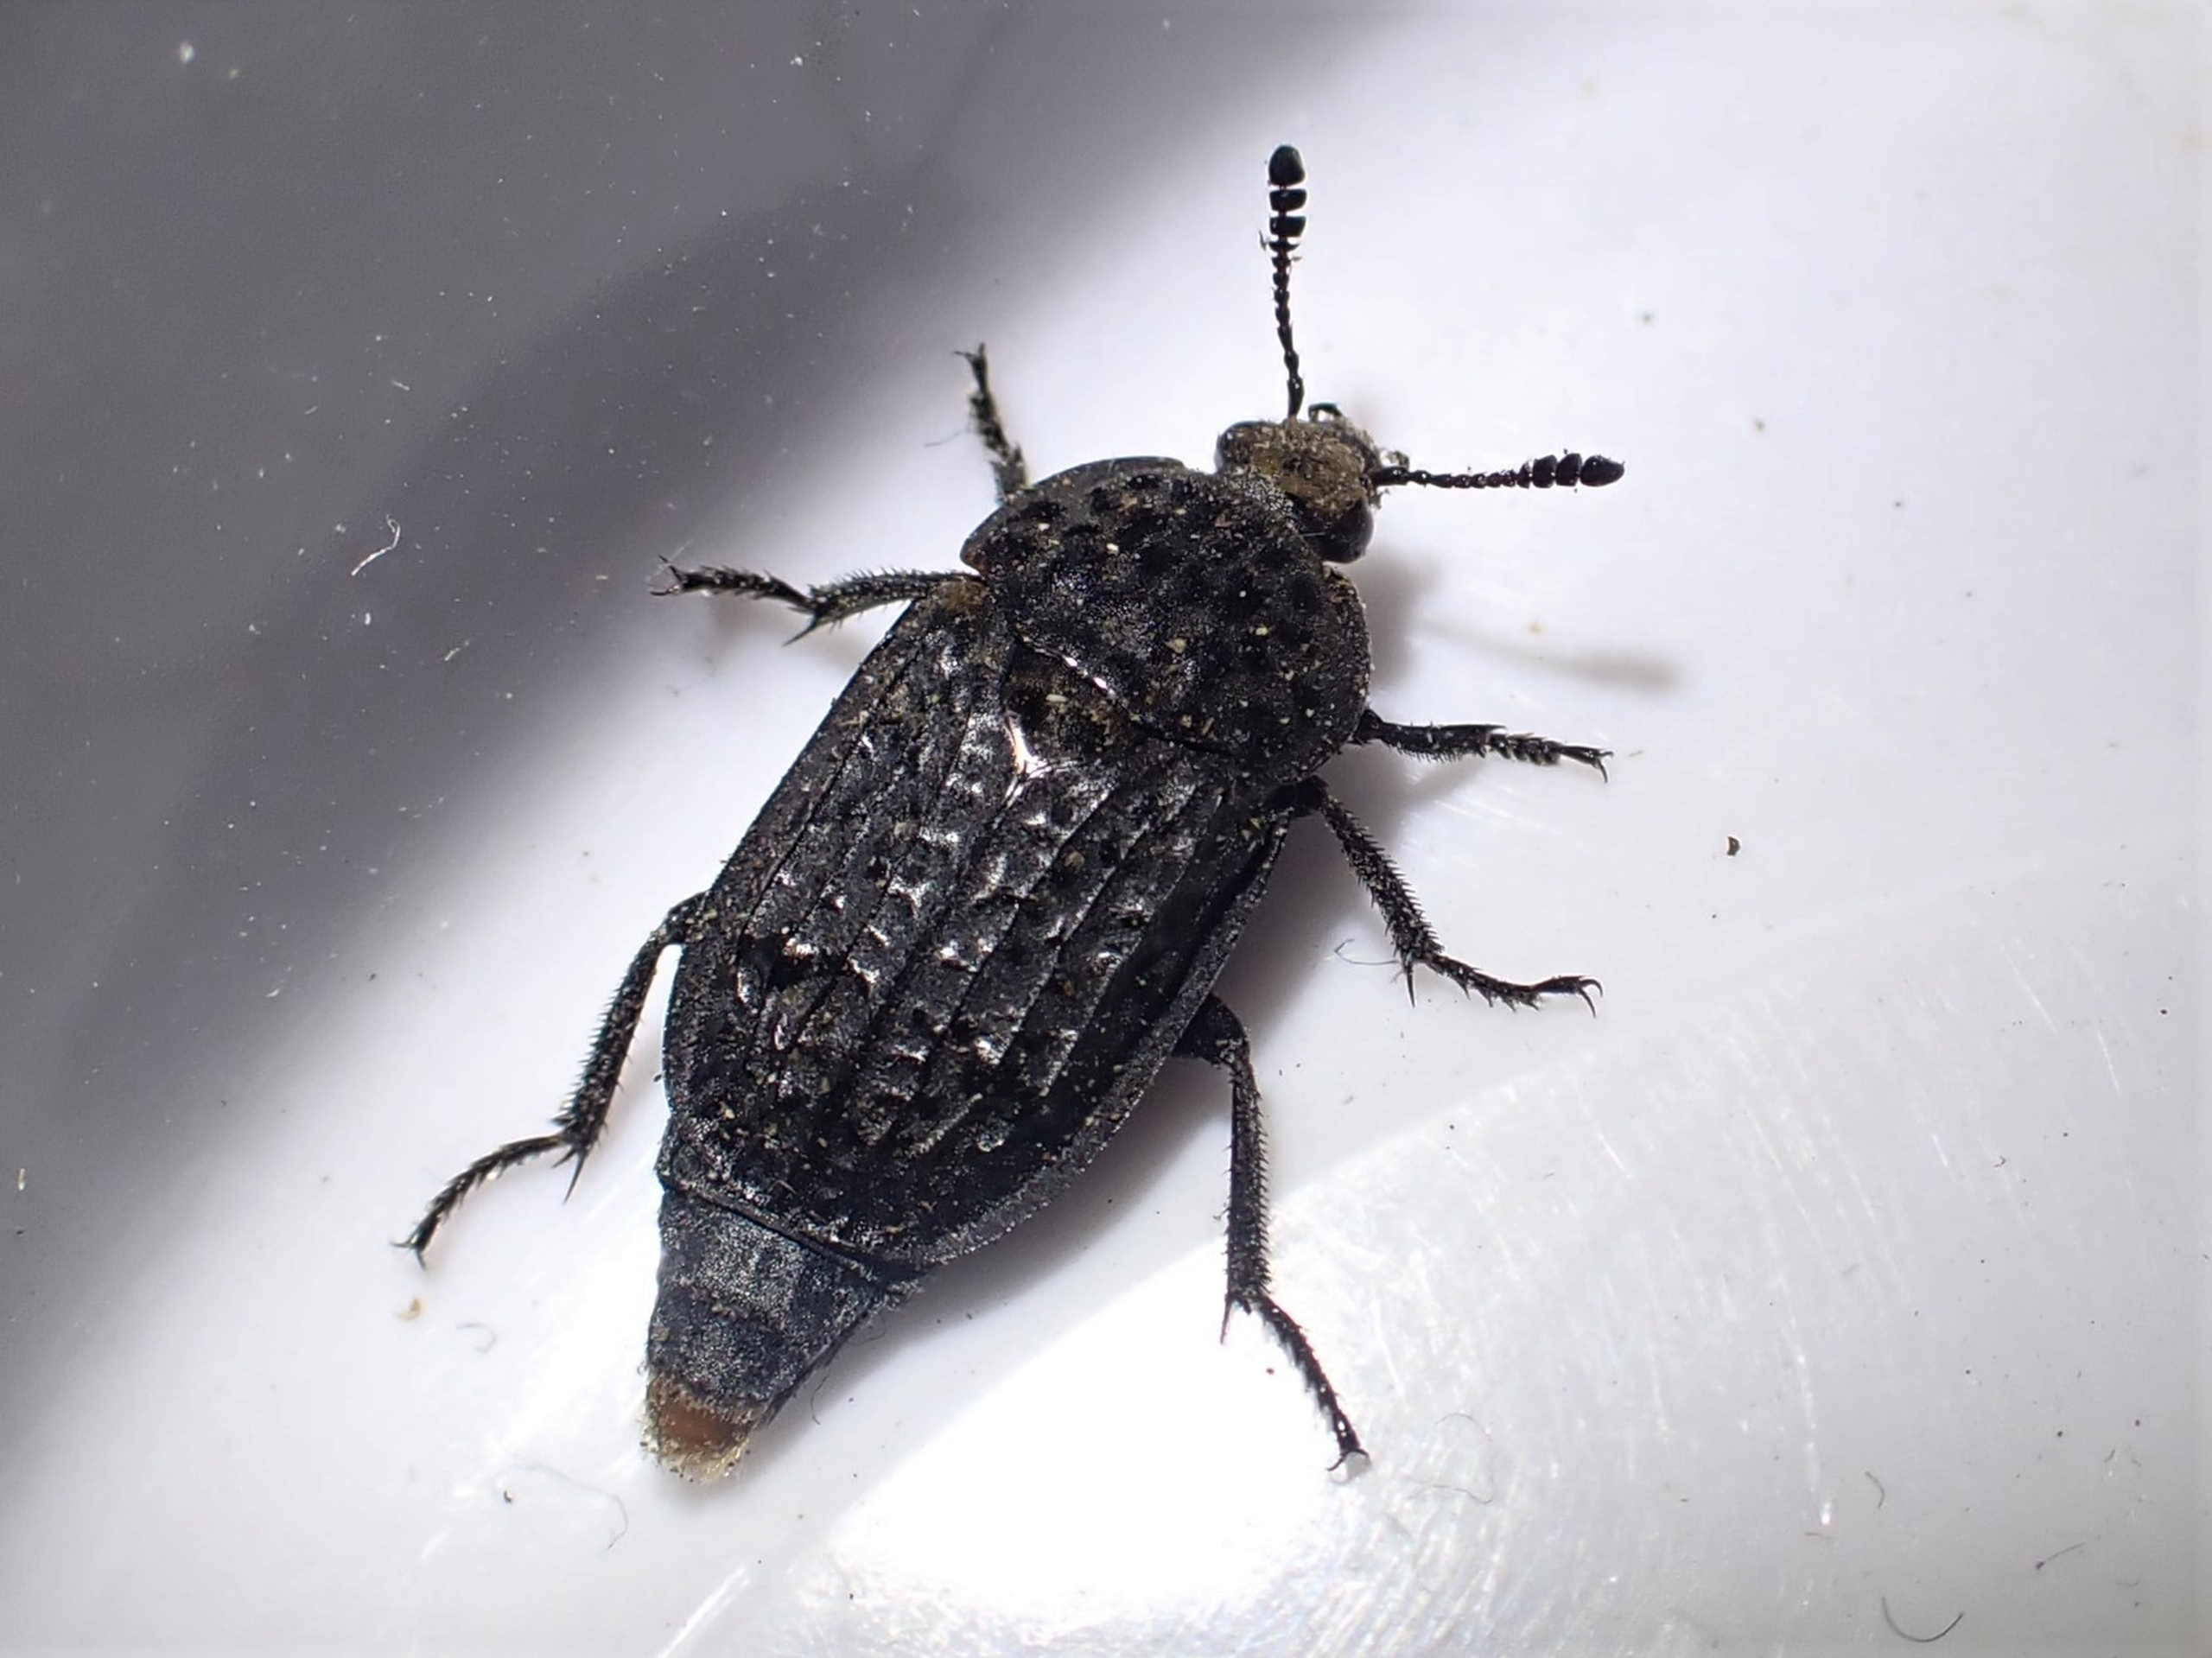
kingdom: Animalia
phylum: Arthropoda
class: Insecta
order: Coleoptera
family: Staphylinidae
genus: Thanatophilus
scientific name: Thanatophilus rugosus
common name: Rynket ådselbille
